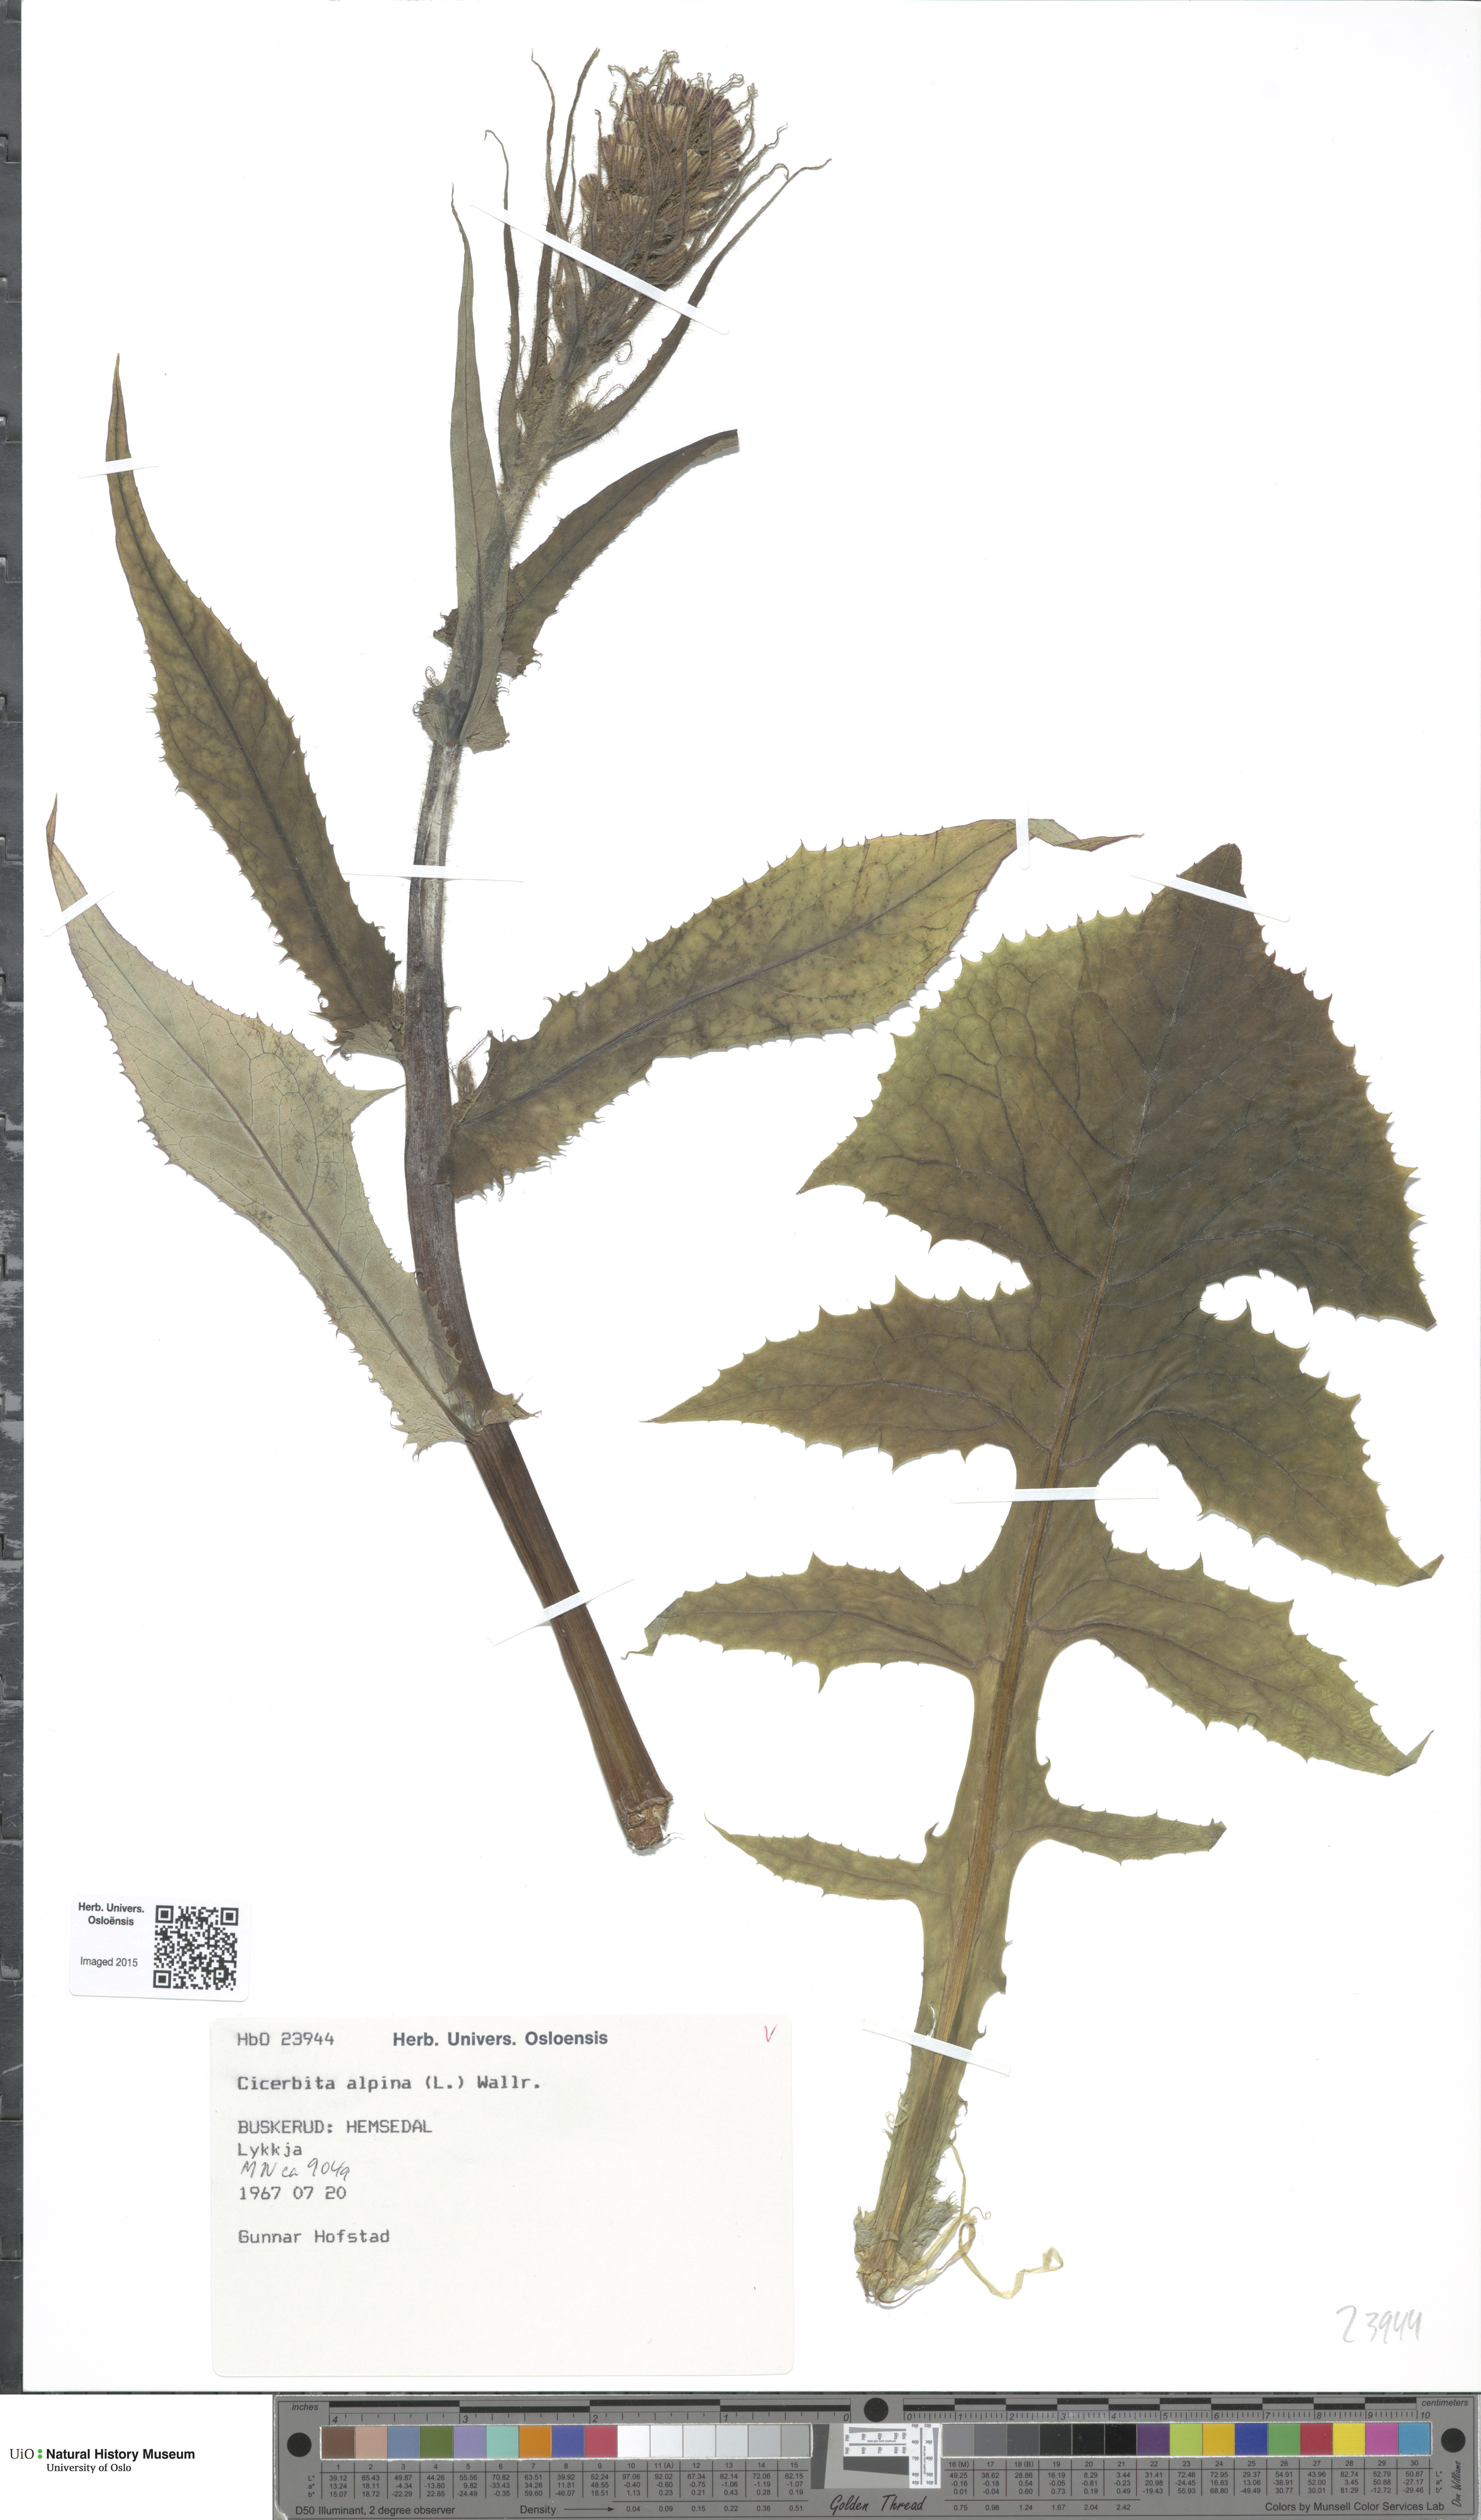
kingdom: Plantae
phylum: Tracheophyta
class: Magnoliopsida
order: Asterales
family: Asteraceae
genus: Cicerbita
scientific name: Cicerbita alpina
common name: Alpine blue-sow-thistle
